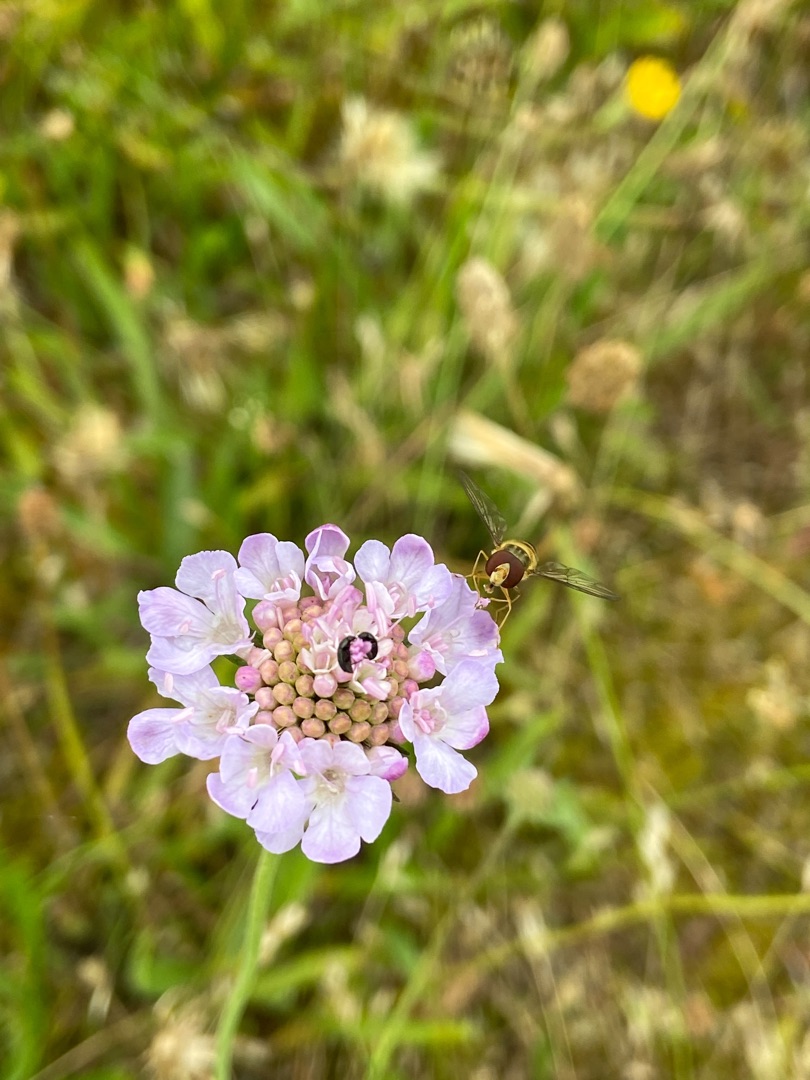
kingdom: Plantae
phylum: Tracheophyta
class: Magnoliopsida
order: Dipsacales
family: Caprifoliaceae
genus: Scabiosa
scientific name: Scabiosa columbaria
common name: Due-skabiose
